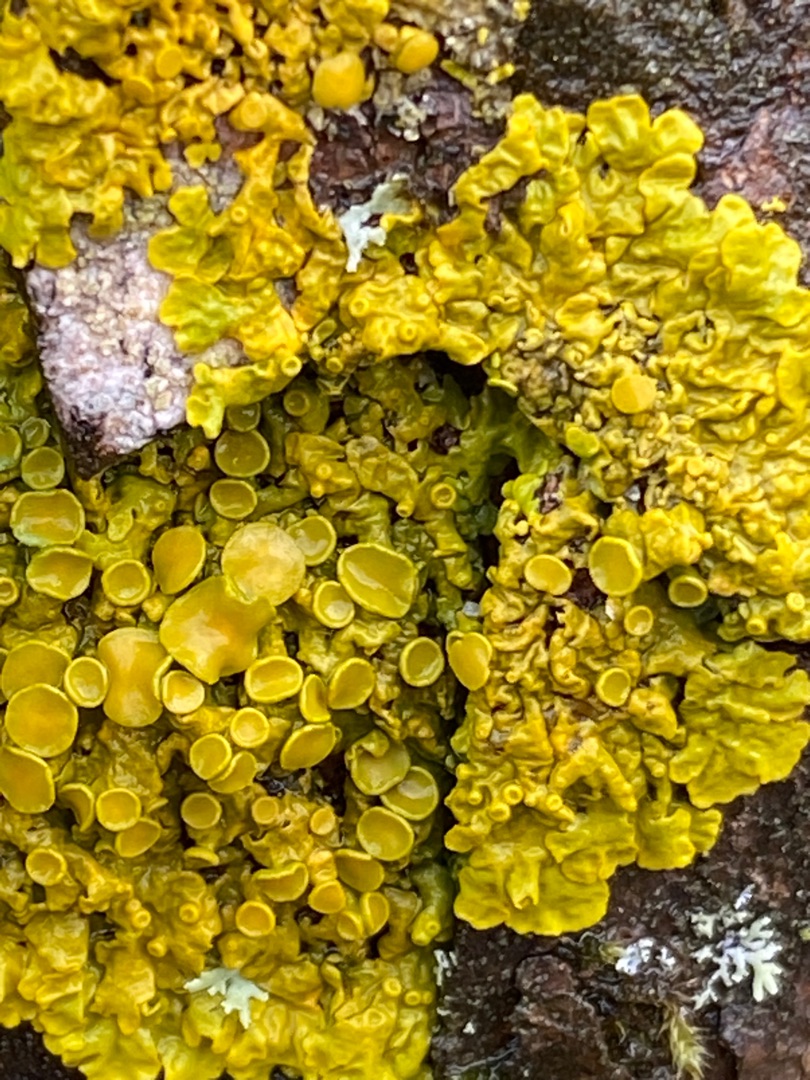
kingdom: Fungi
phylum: Ascomycota
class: Lecanoromycetes
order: Teloschistales
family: Teloschistaceae
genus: Xanthoria
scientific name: Xanthoria parietina
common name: Almindelig væggelav
